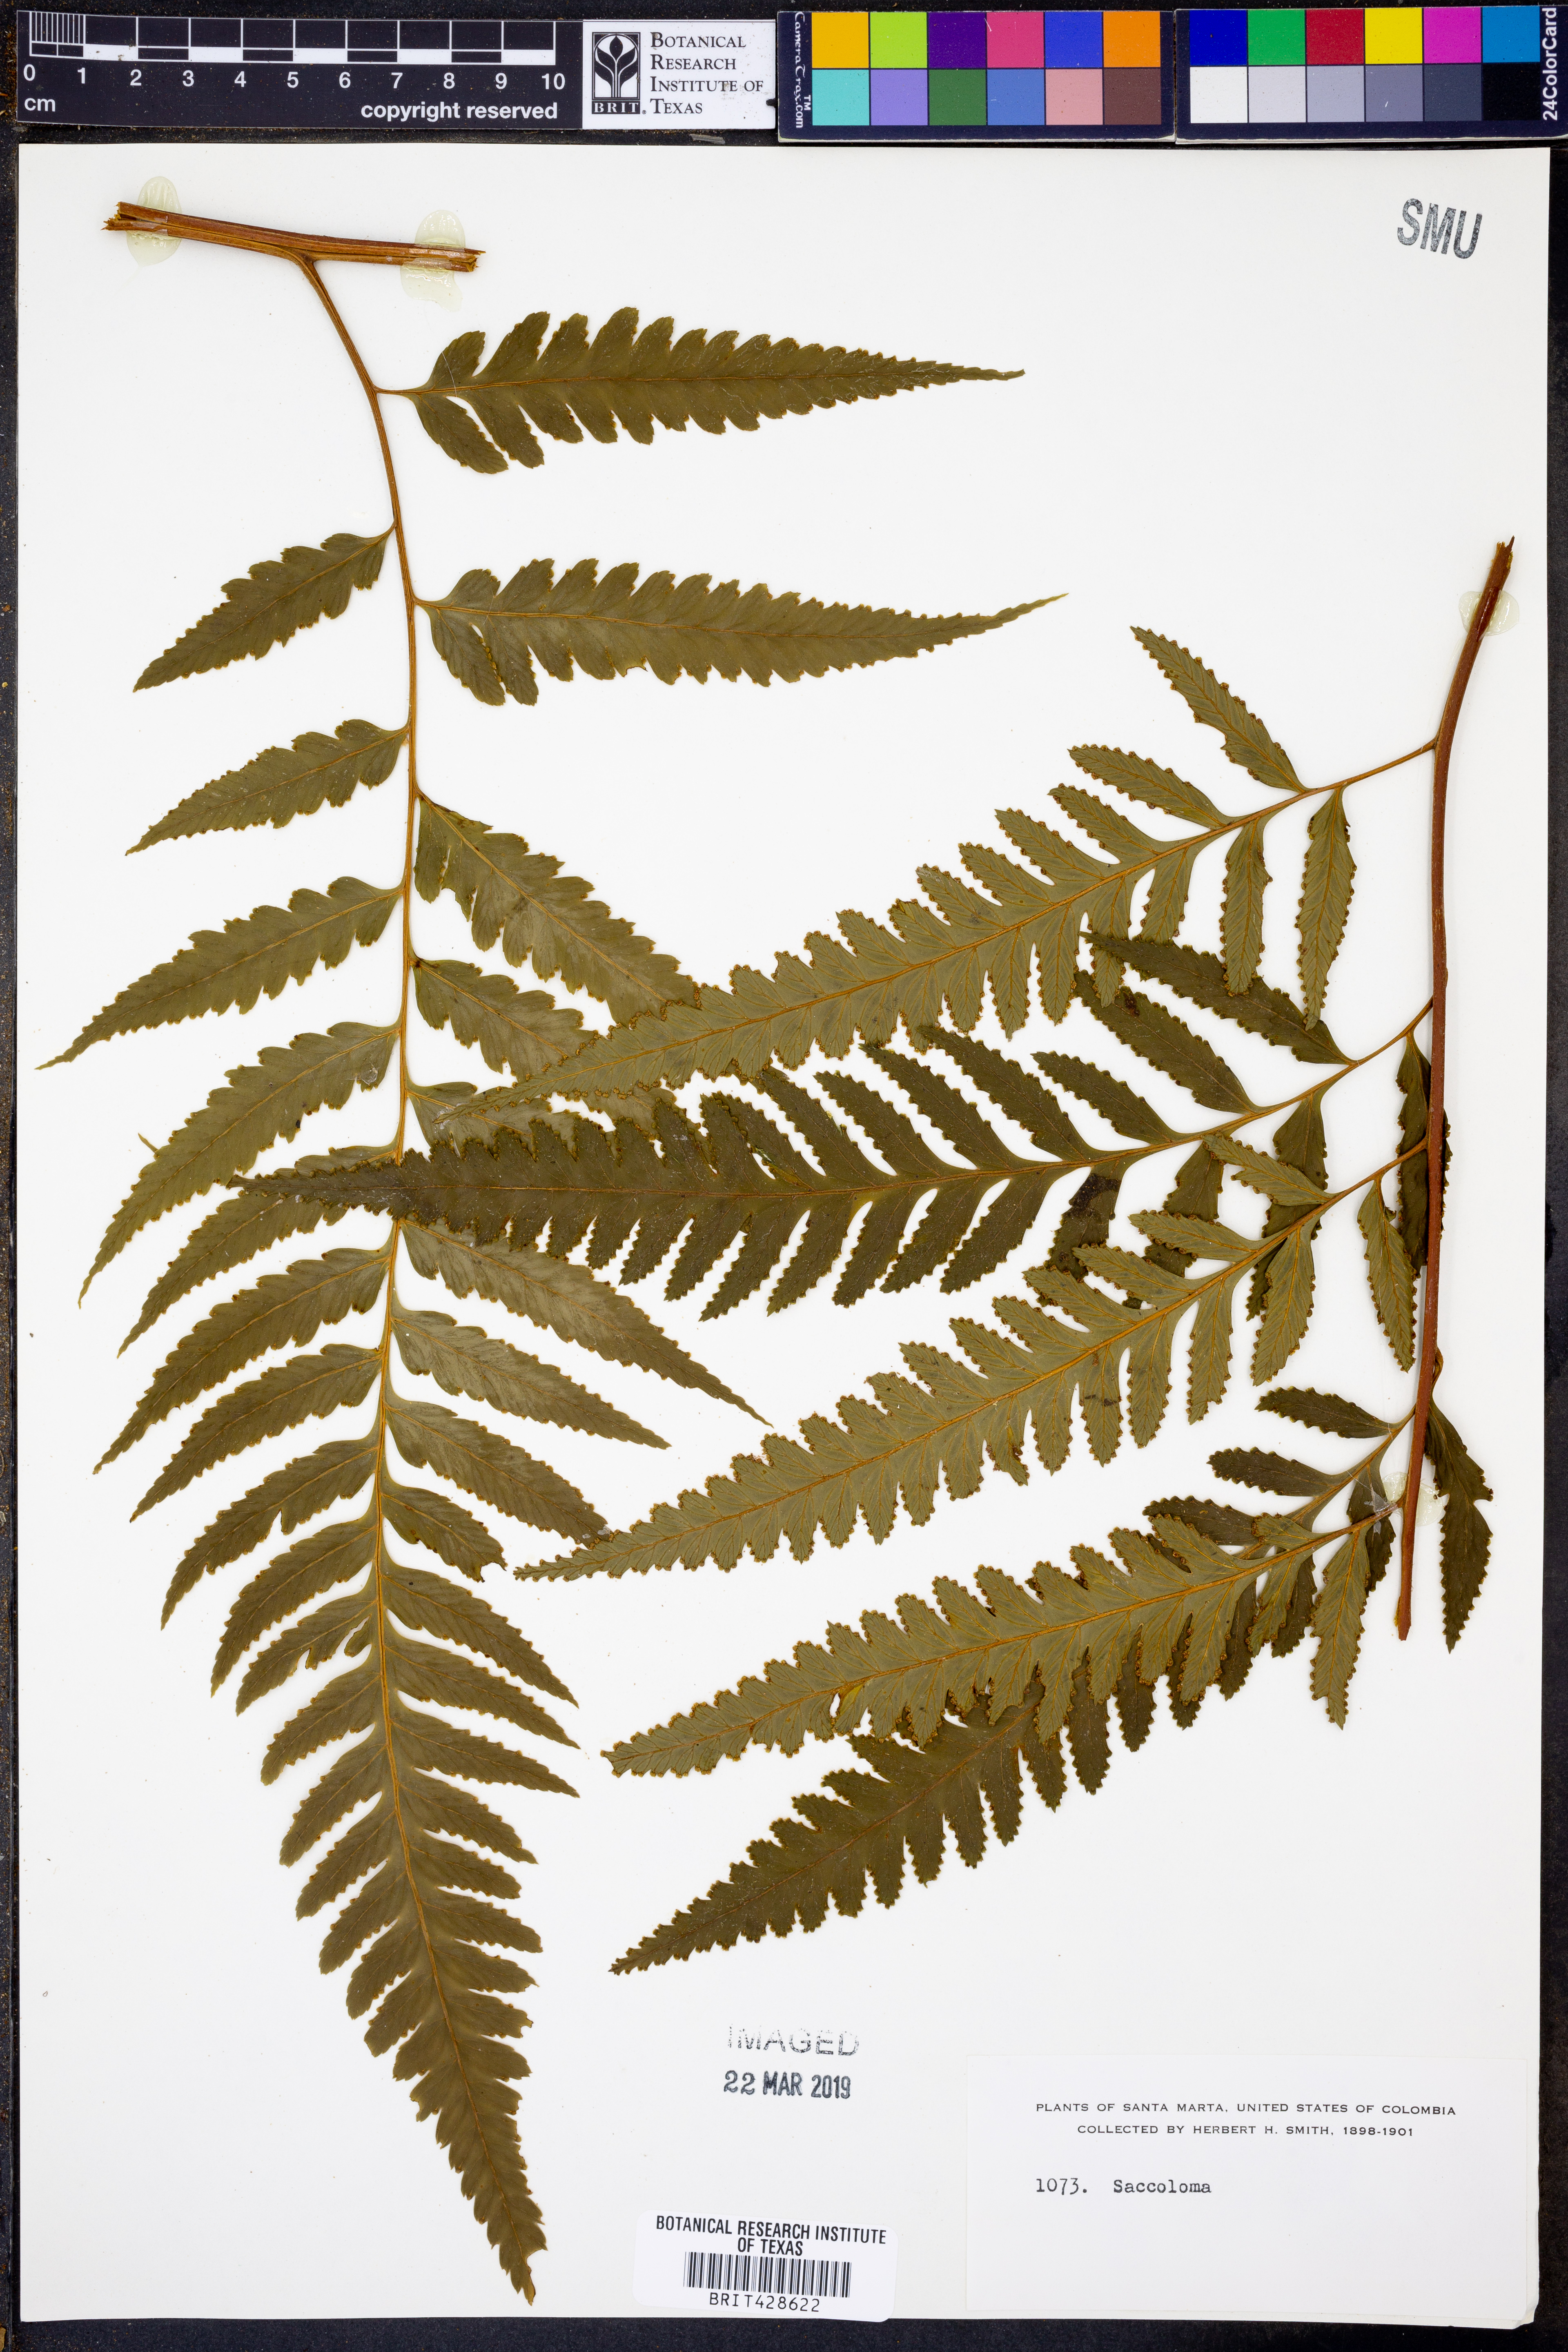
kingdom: Plantae
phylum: Tracheophyta
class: Polypodiopsida
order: Polypodiales
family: Saccolomataceae
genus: Saccoloma
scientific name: Saccoloma
